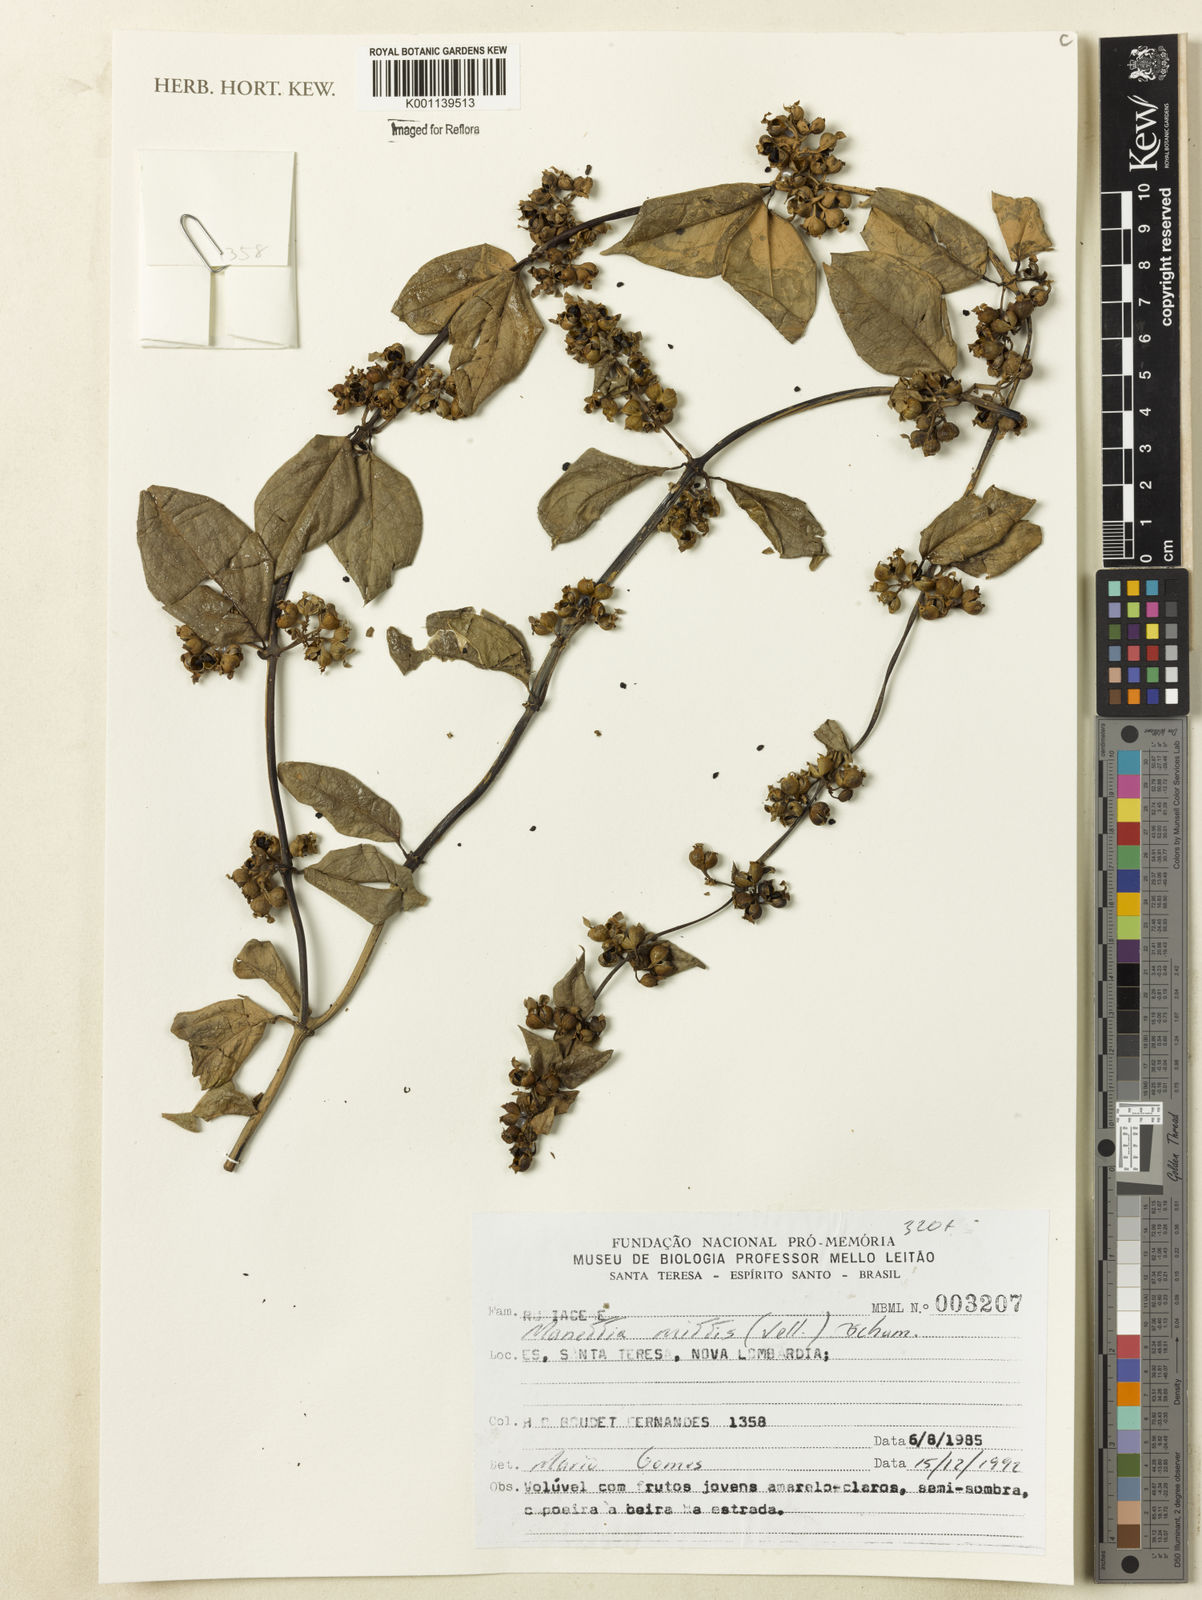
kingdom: Plantae
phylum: Tracheophyta
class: Magnoliopsida
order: Gentianales
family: Rubiaceae
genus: Manettia
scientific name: Manettia mitis
